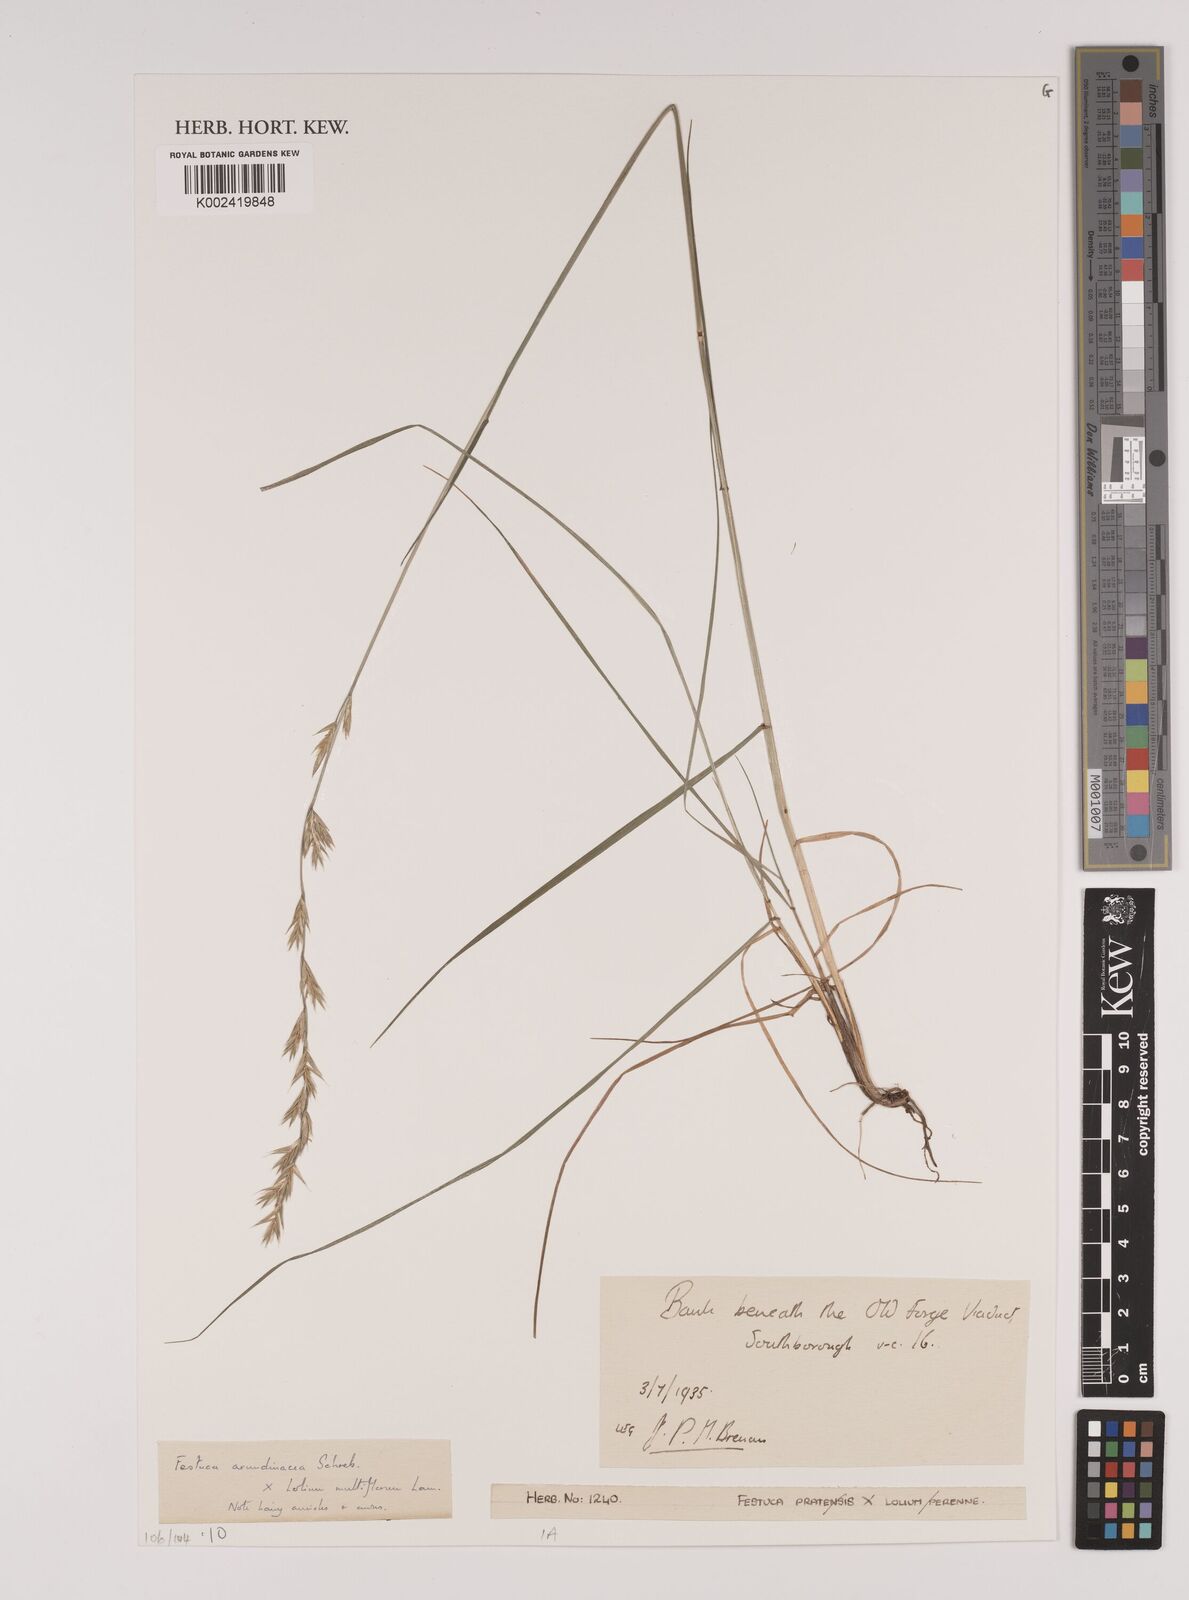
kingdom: Plantae
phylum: Tracheophyta
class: Liliopsida
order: Poales
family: Poaceae
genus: Lolium
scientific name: Lolium arundinaceum
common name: Reed fescue
